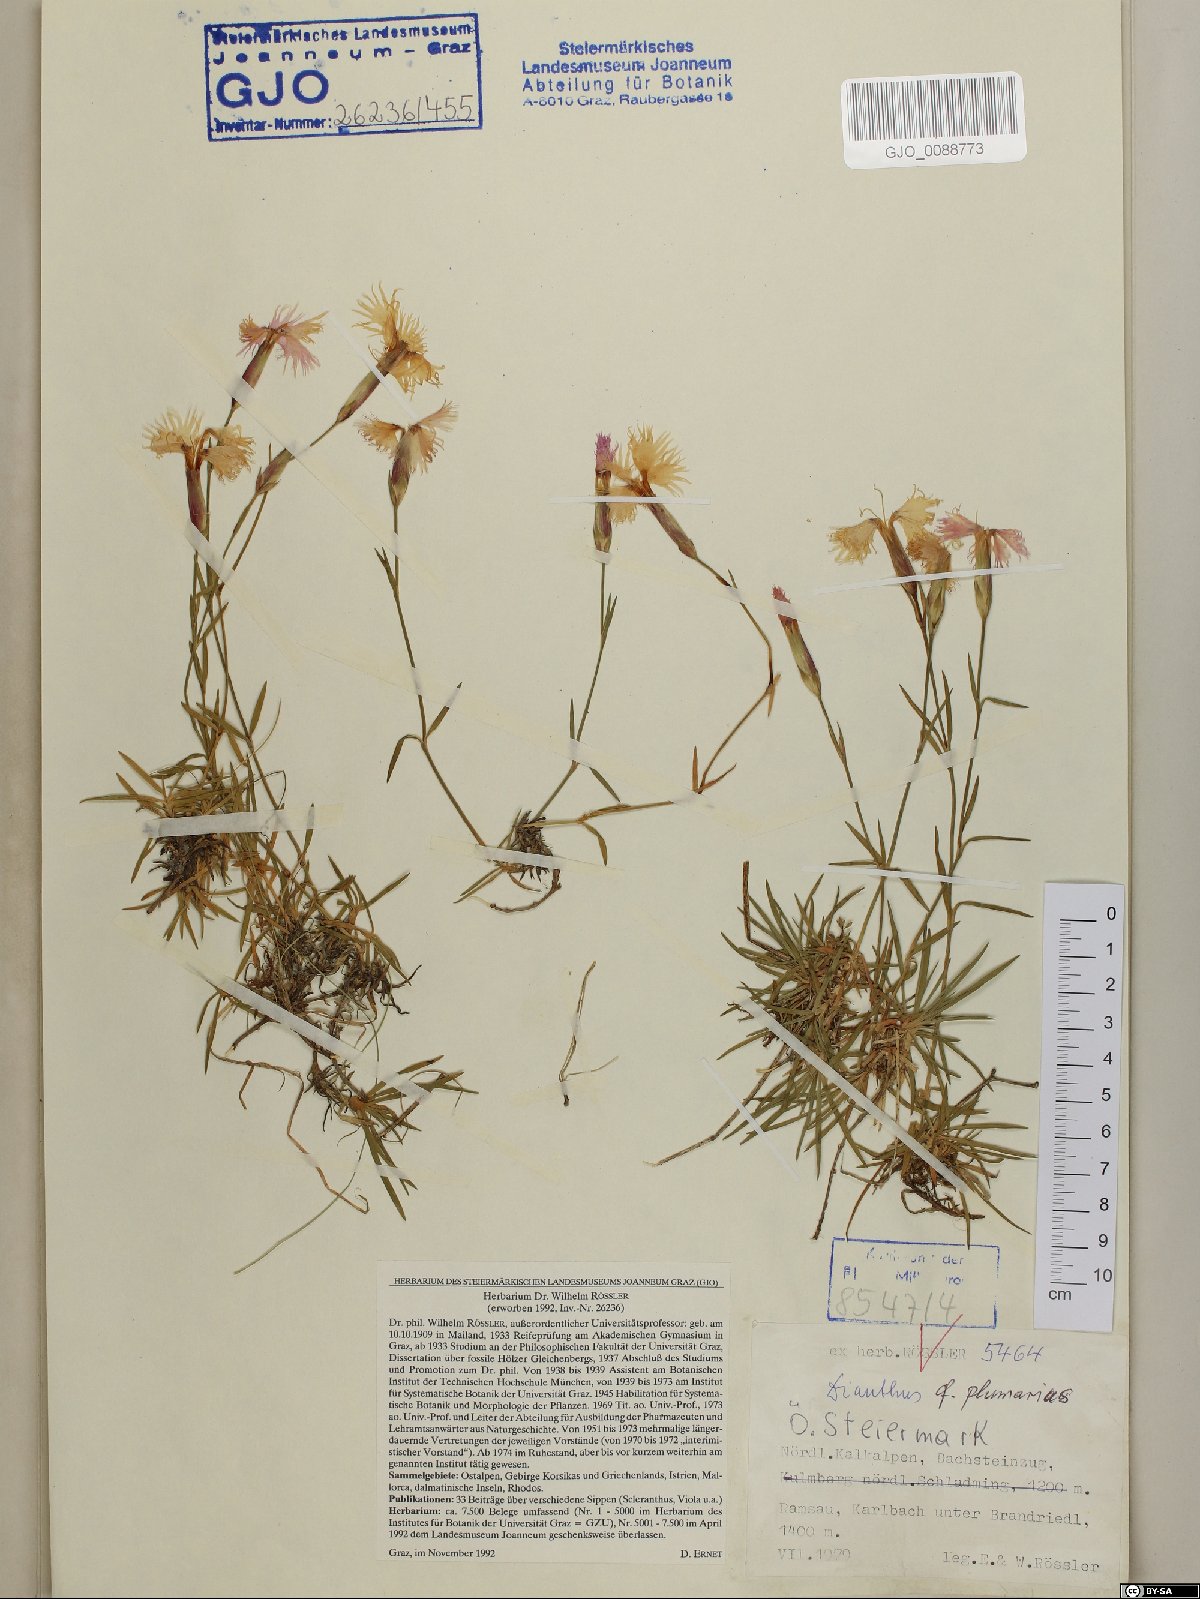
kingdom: Plantae
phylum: Tracheophyta
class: Magnoliopsida
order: Caryophyllales
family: Caryophyllaceae
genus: Dianthus
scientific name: Dianthus plumarius
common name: Pink
